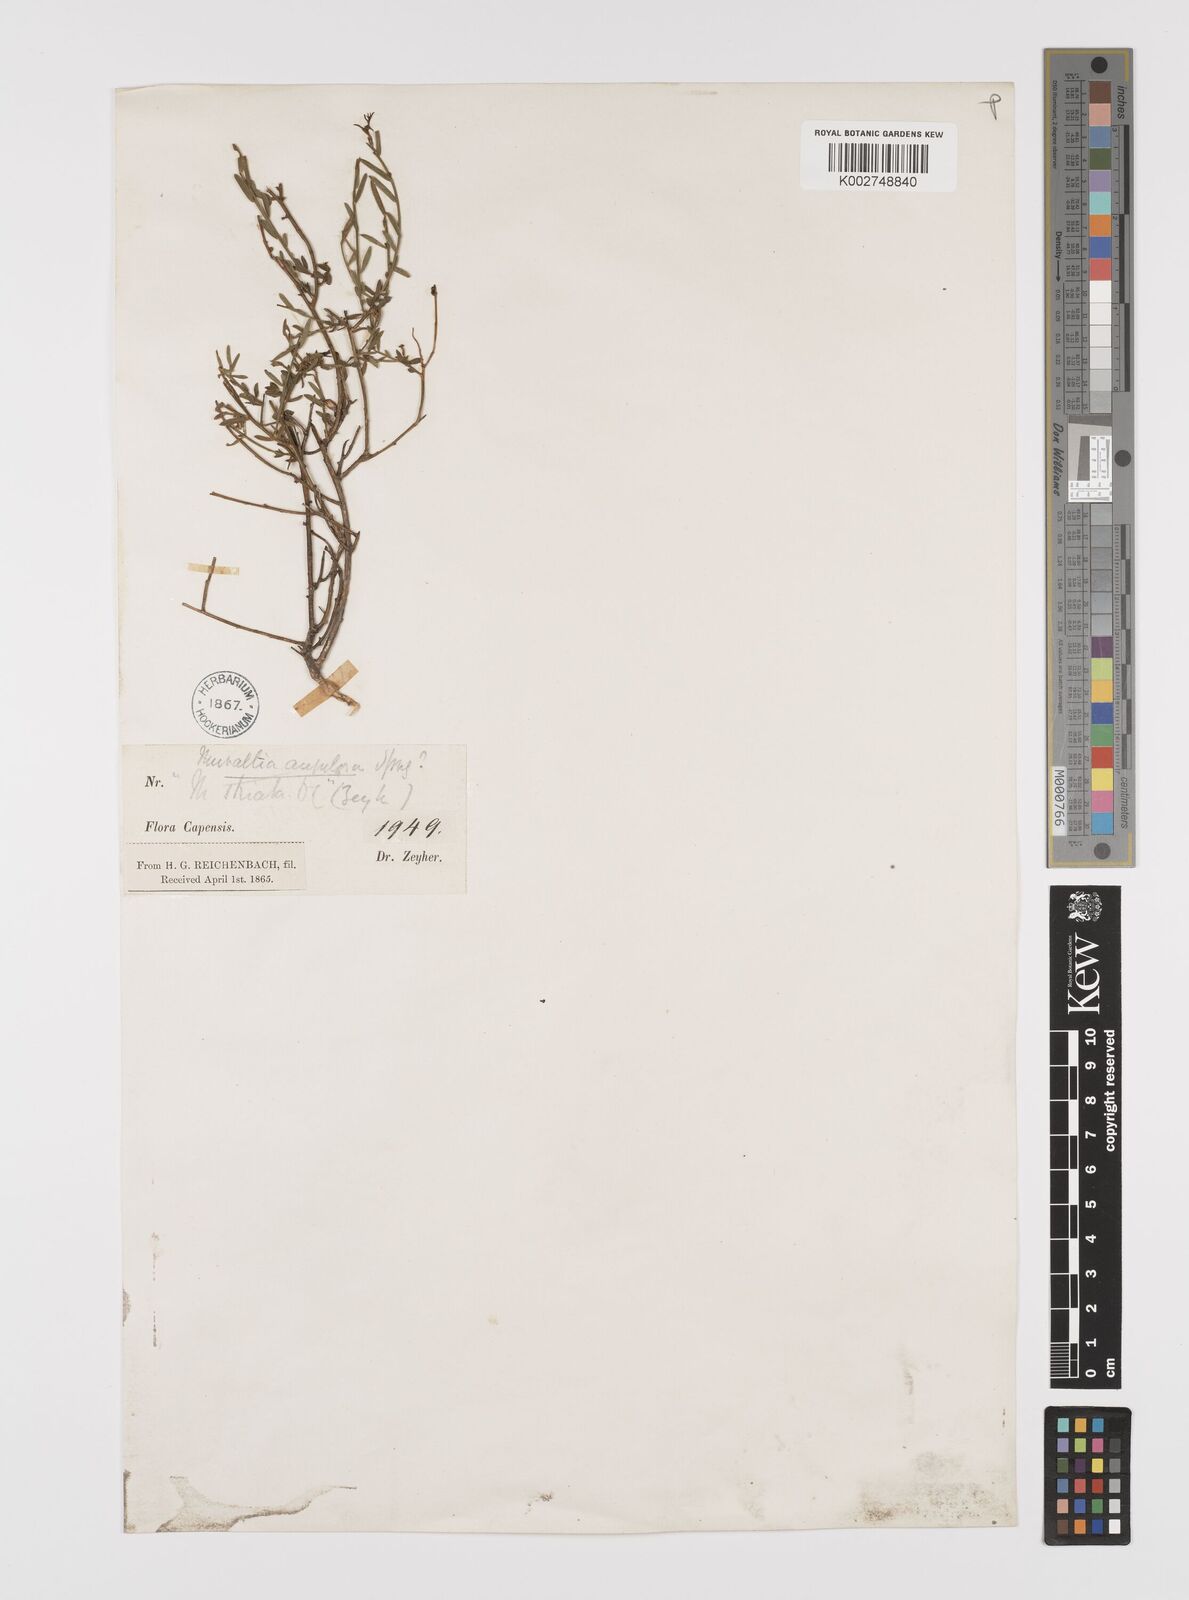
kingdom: Plantae
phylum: Tracheophyta
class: Magnoliopsida
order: Fabales
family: Polygalaceae
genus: Muraltia
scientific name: Muraltia muraltioides
